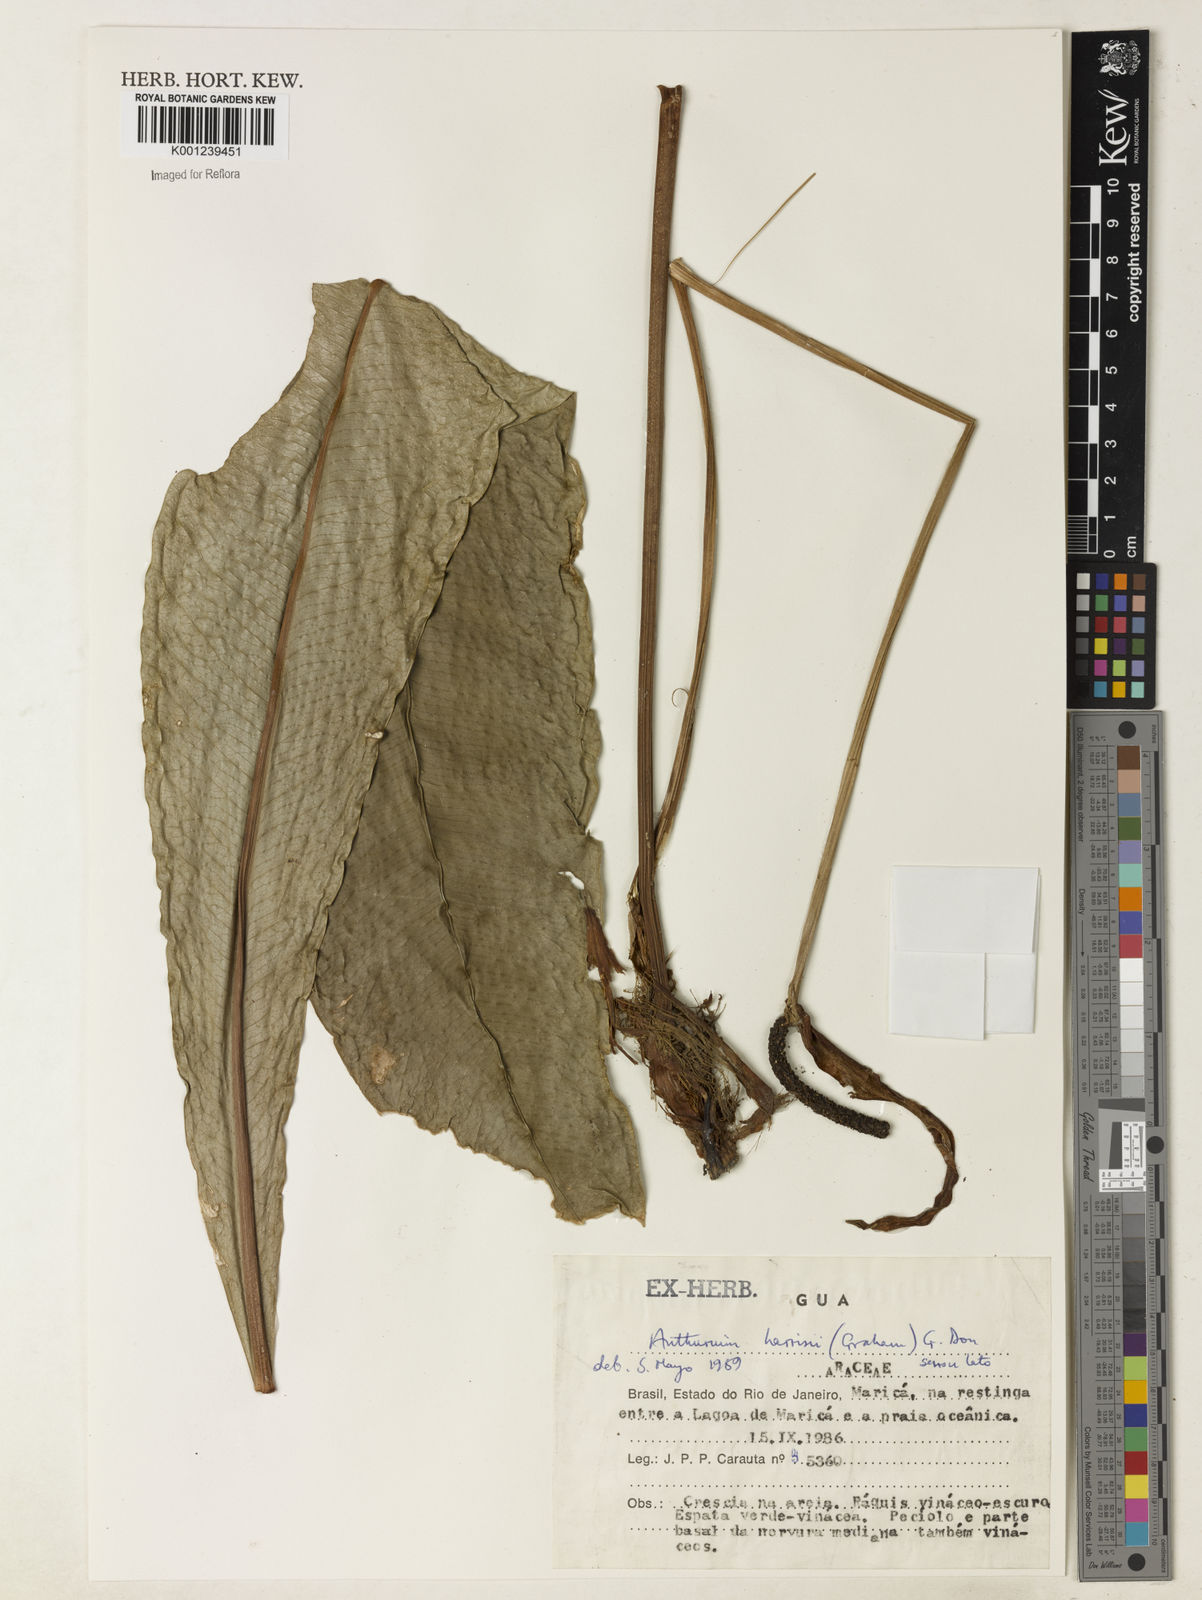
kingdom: Plantae
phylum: Tracheophyta
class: Liliopsida
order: Alismatales
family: Araceae
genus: Anthurium
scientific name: Anthurium harrisii
